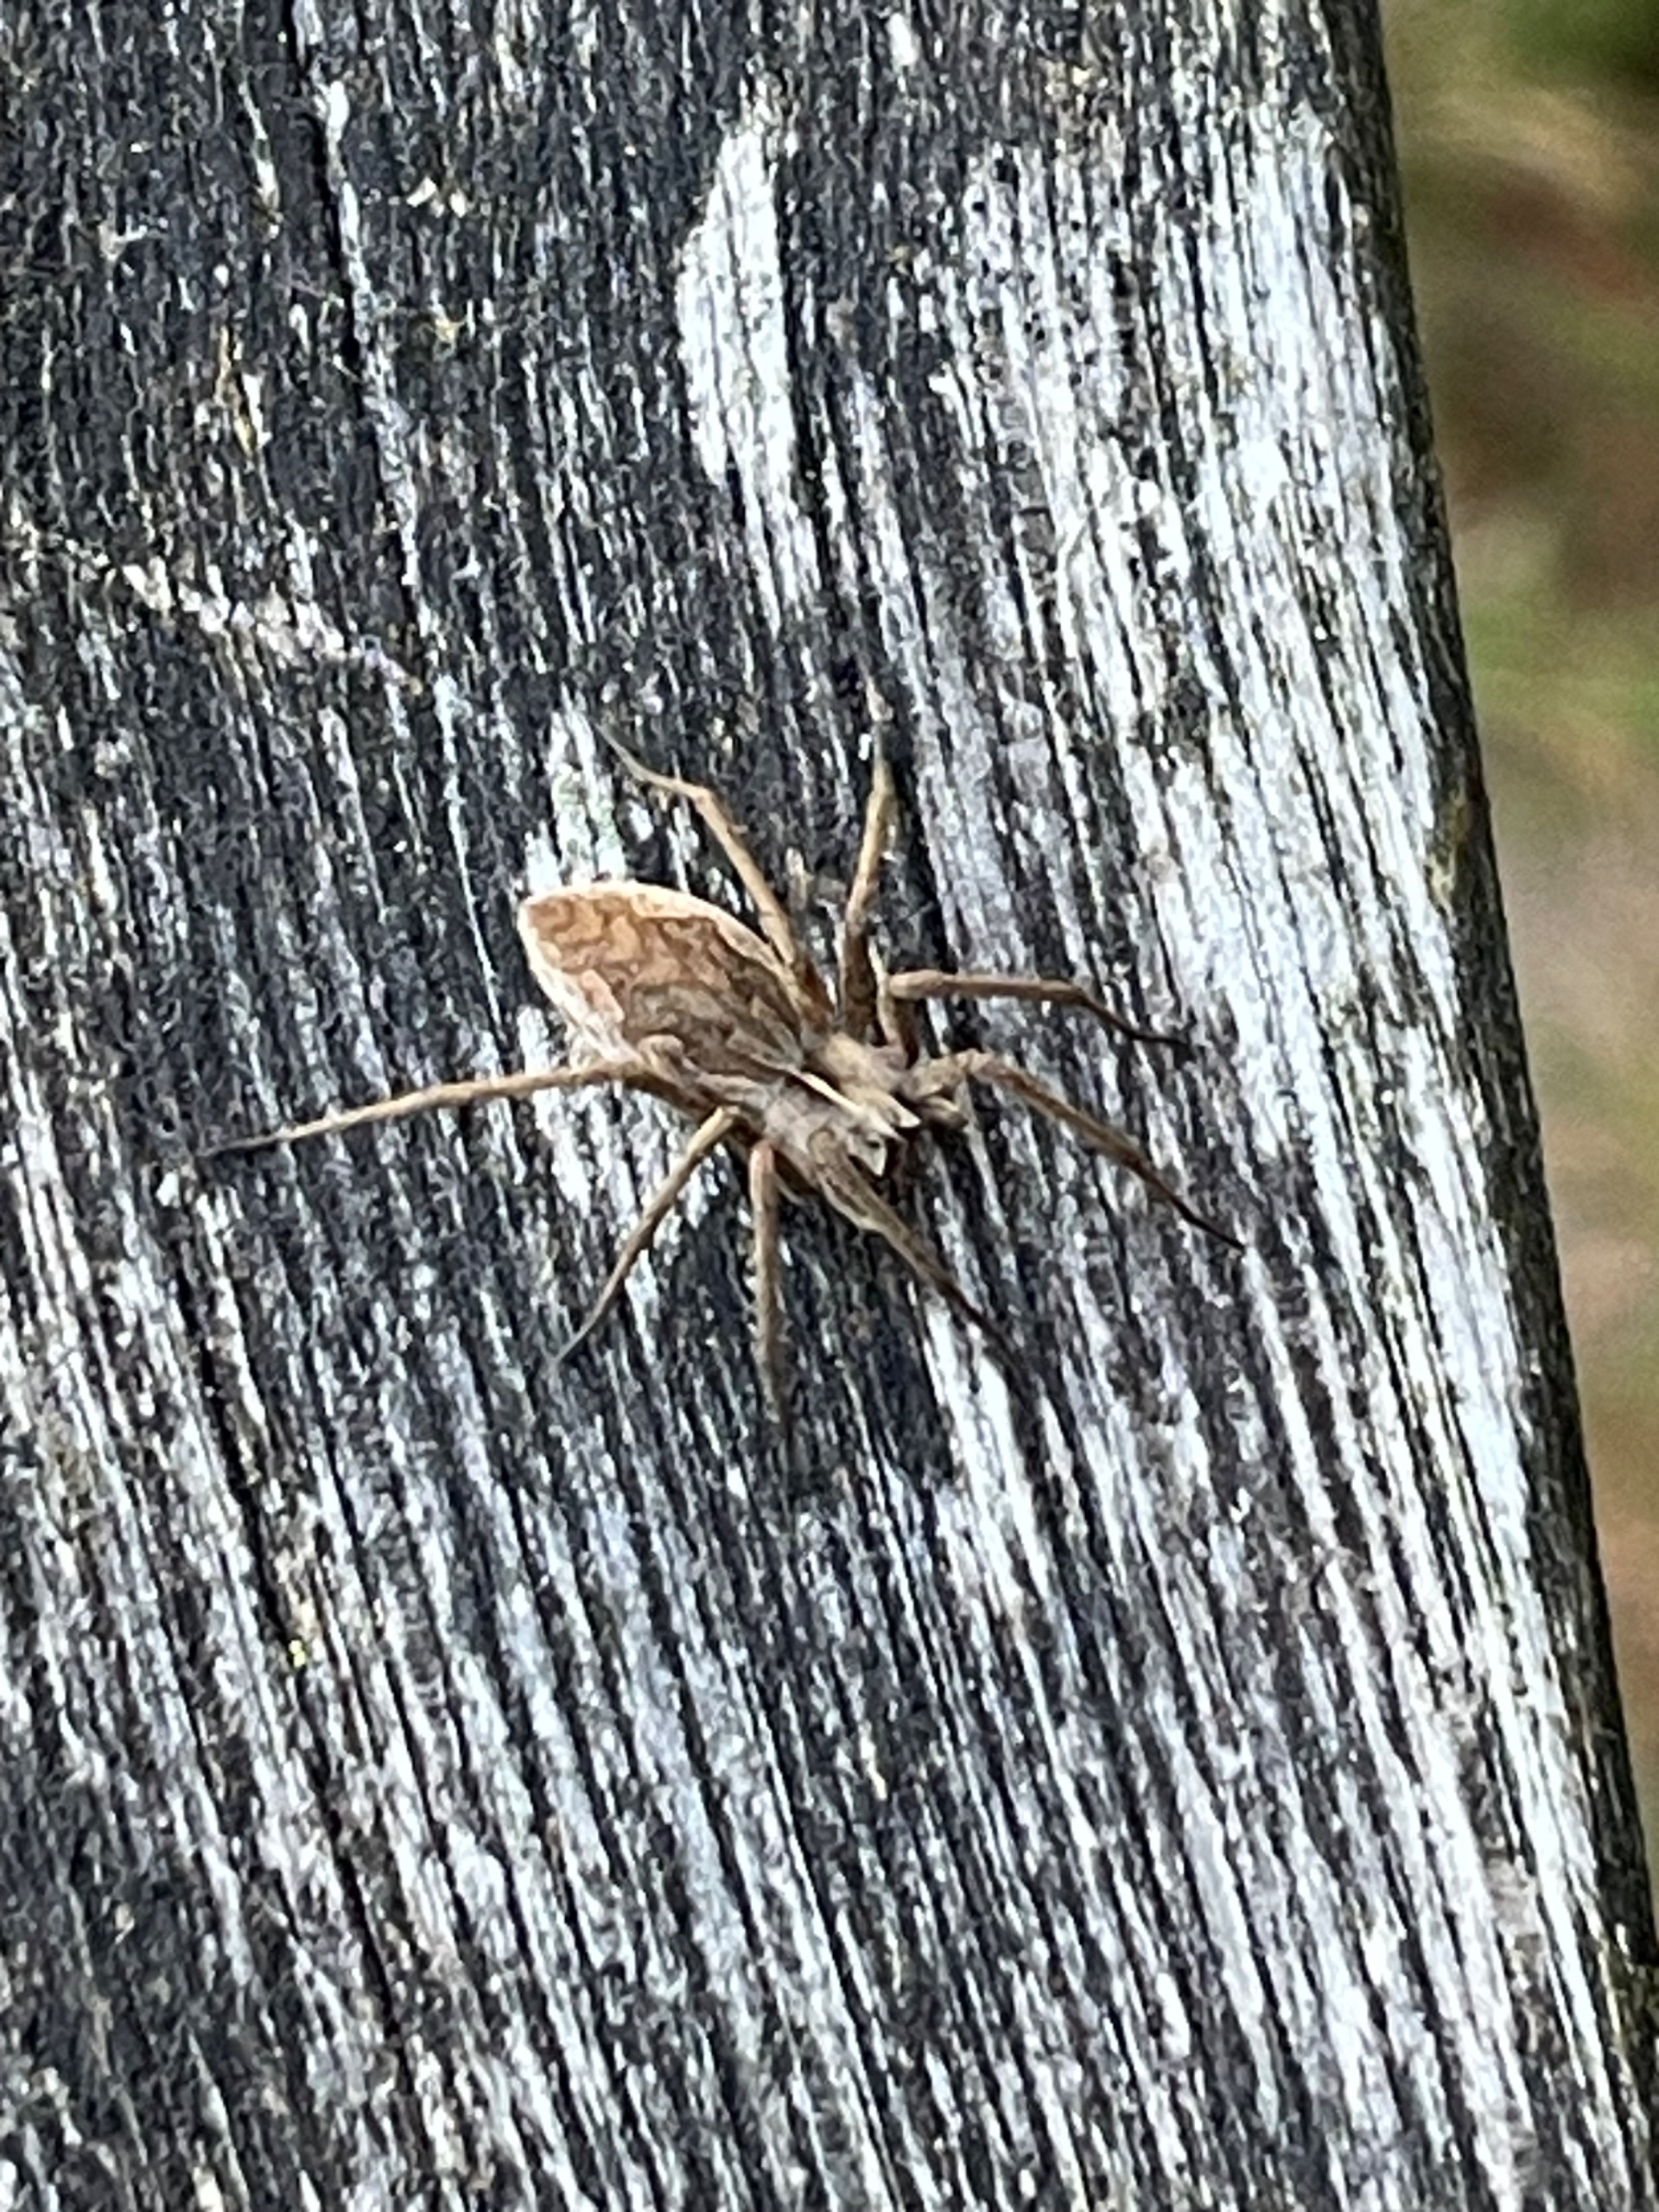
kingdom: Animalia
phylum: Arthropoda
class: Arachnida
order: Araneae
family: Pisauridae
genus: Pisaura
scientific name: Pisaura mirabilis
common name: Almindelig rovedderkop
